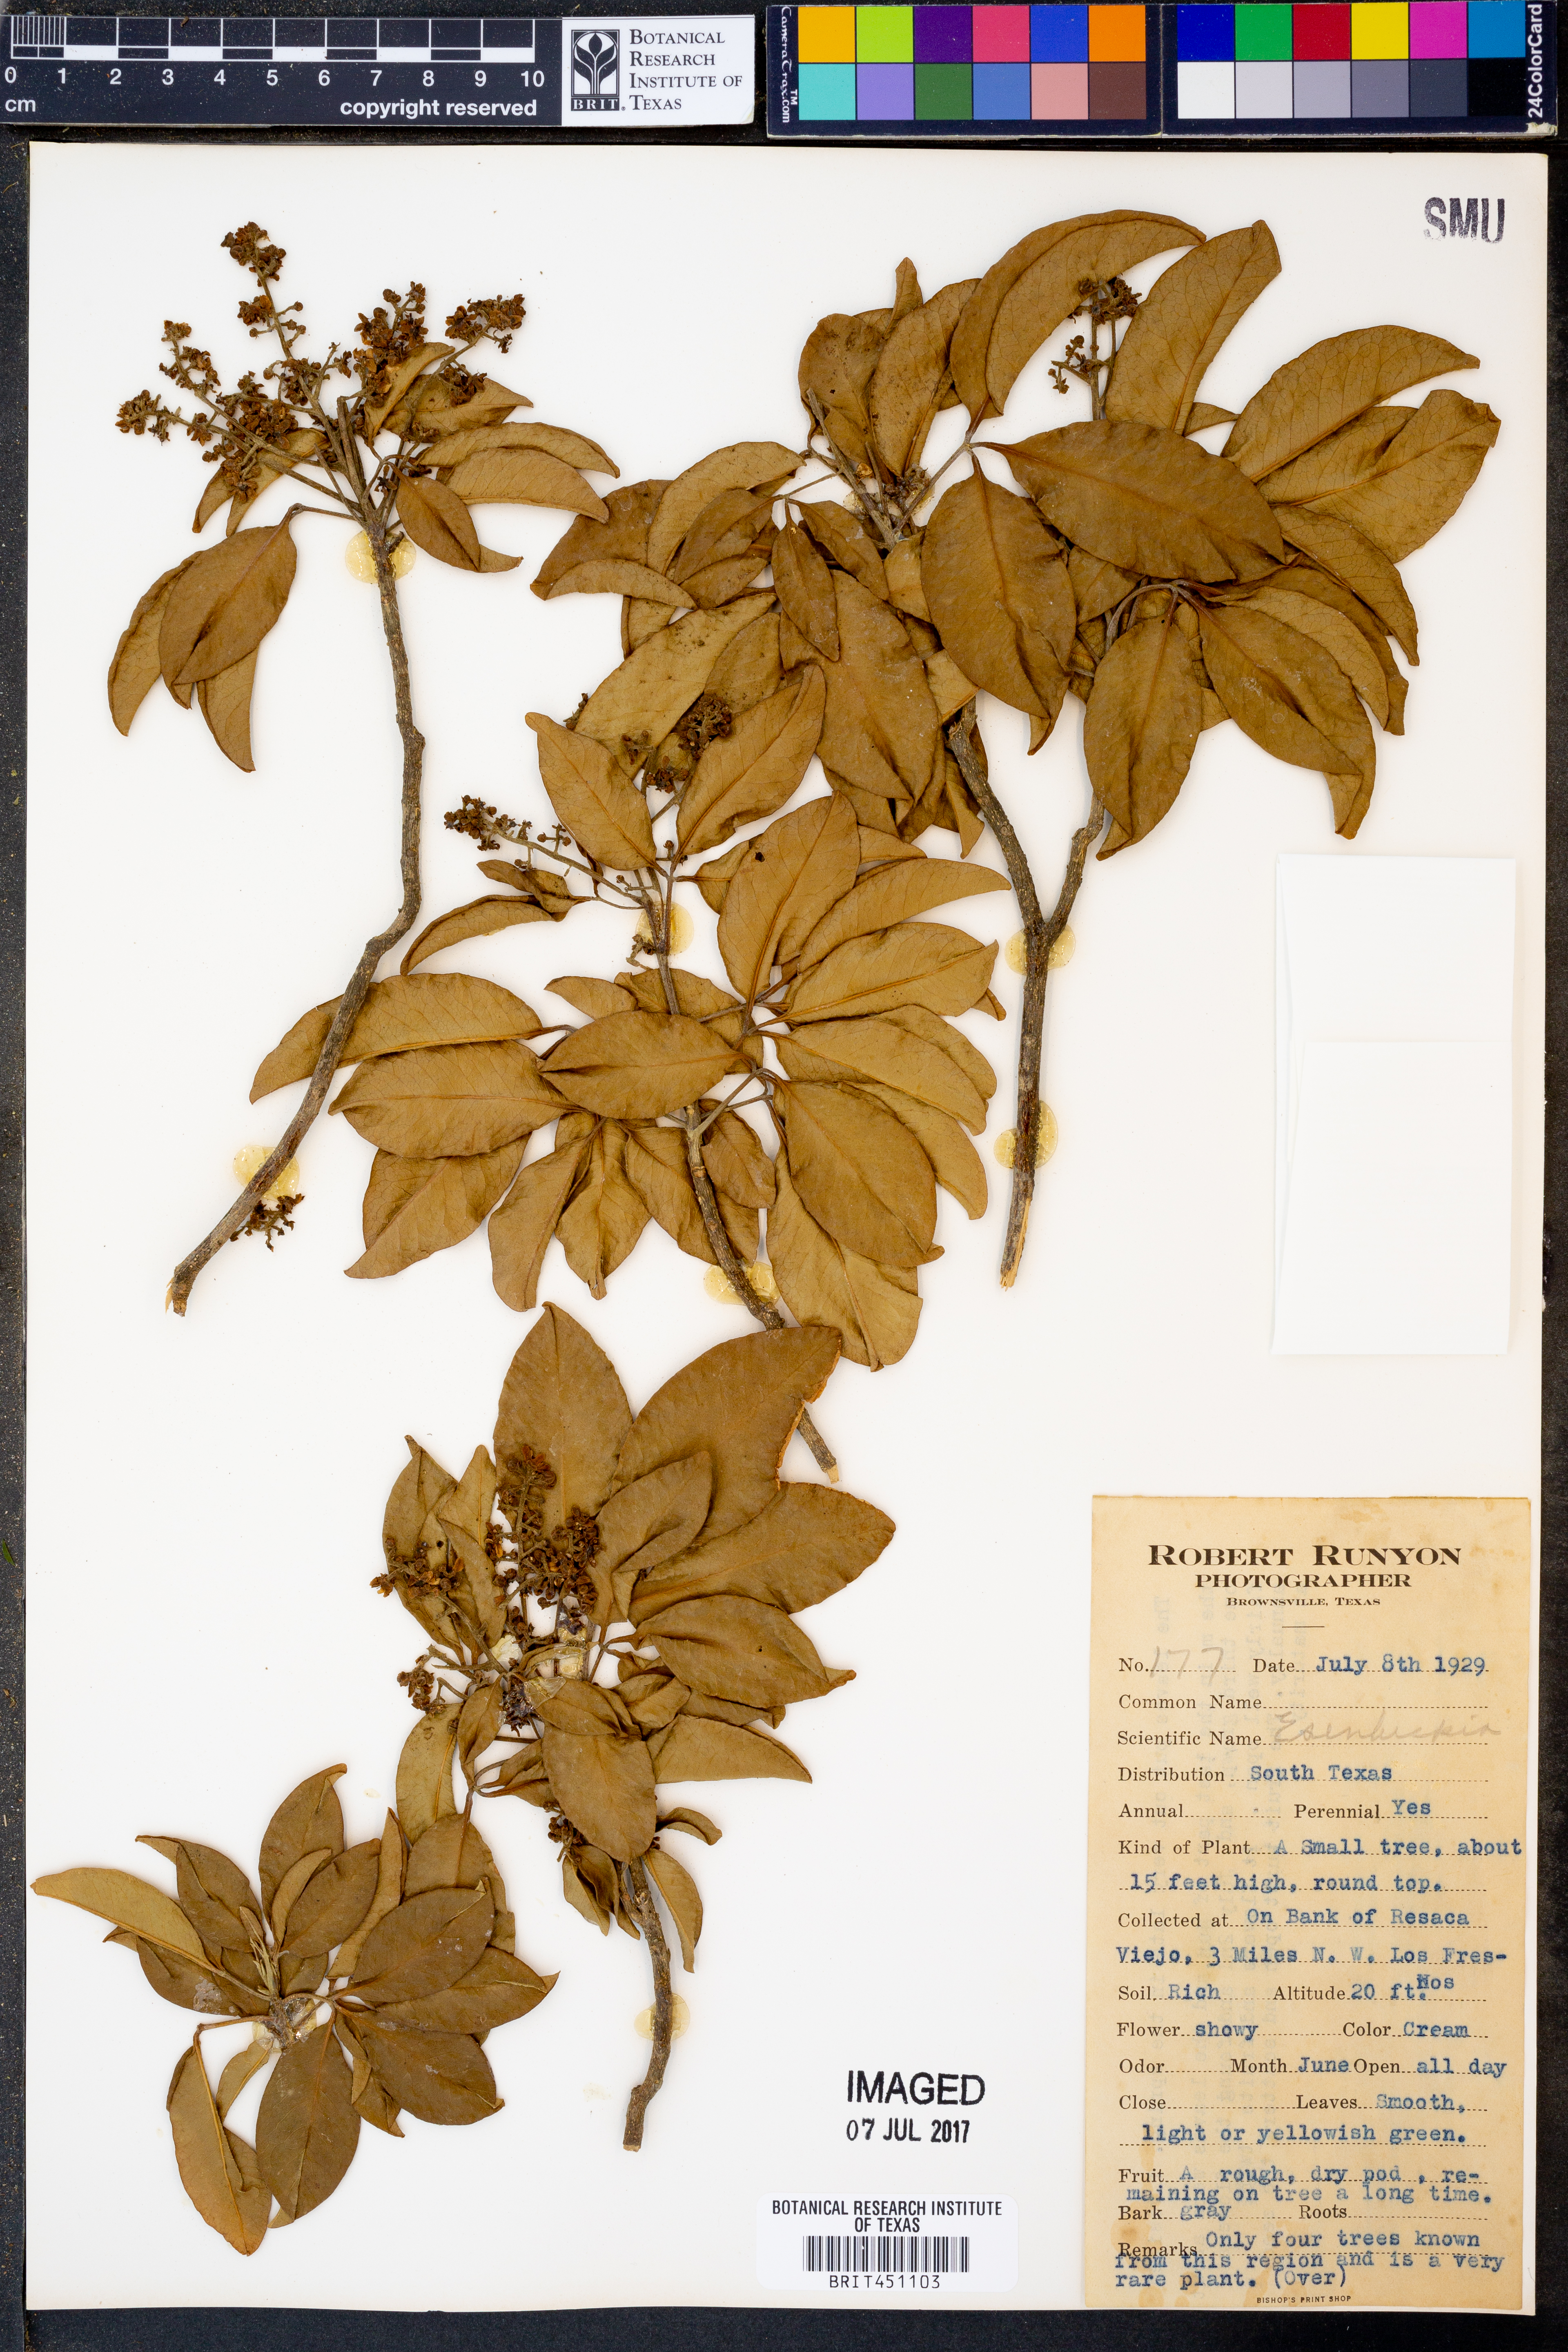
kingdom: Plantae
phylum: Tracheophyta
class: Magnoliopsida
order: Sapindales
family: Rutaceae
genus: Esenbeckia
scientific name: Esenbeckia
